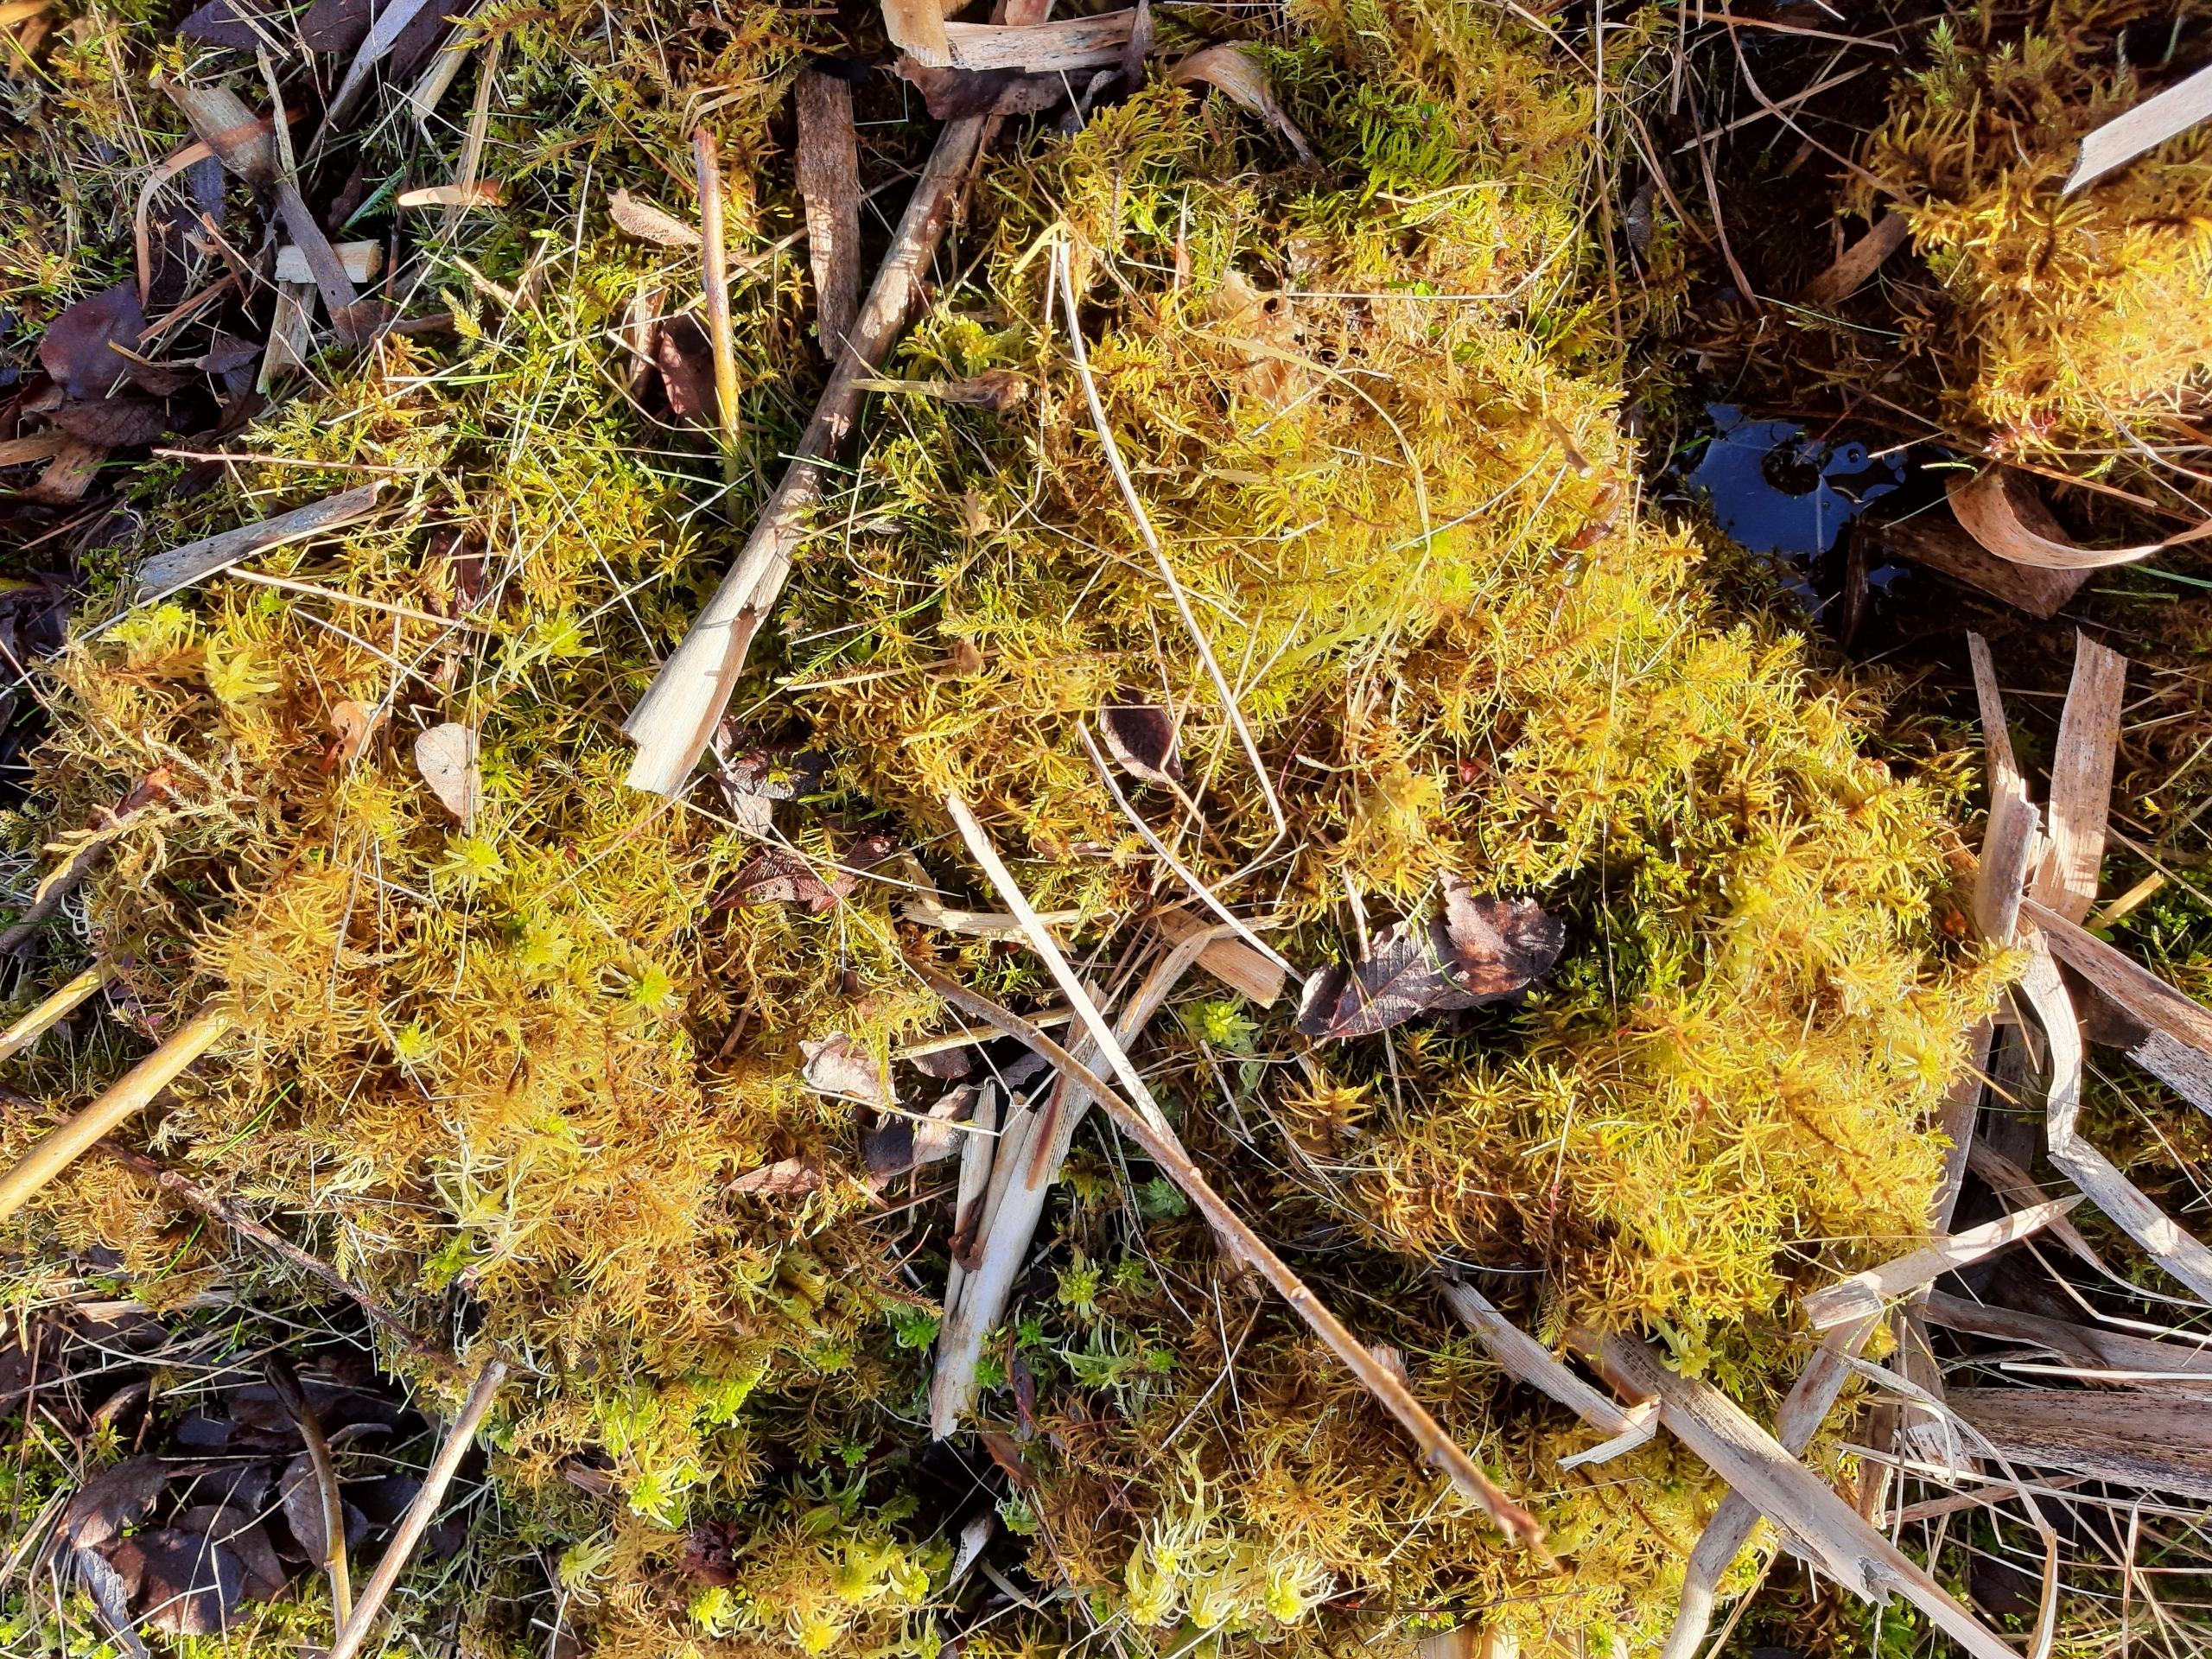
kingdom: Plantae
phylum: Bryophyta
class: Bryopsida
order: Hypnales
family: Helodiaceae
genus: Helodium
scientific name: Helodium blandowii
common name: Kær-gyldenmos
